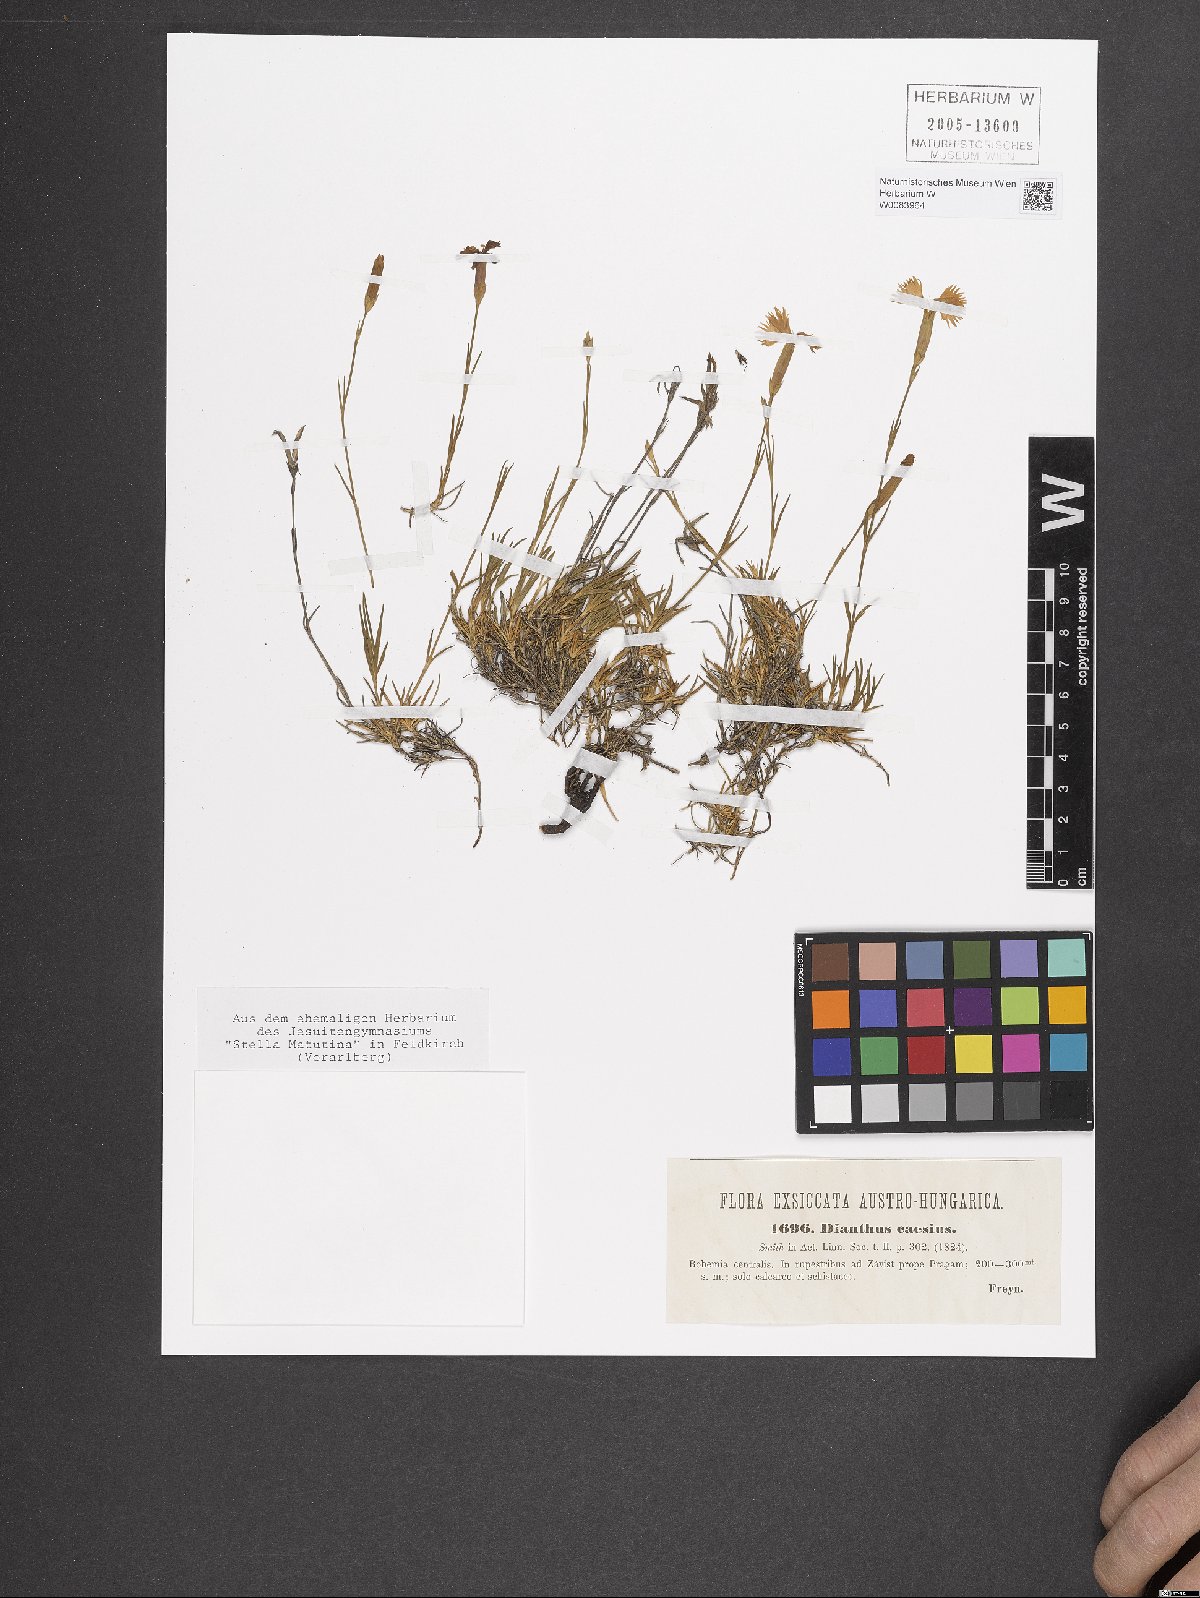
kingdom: Plantae
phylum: Tracheophyta
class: Magnoliopsida
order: Caryophyllales
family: Caryophyllaceae
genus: Dianthus
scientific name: Dianthus gratianopolitanus
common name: Cheddar pink
